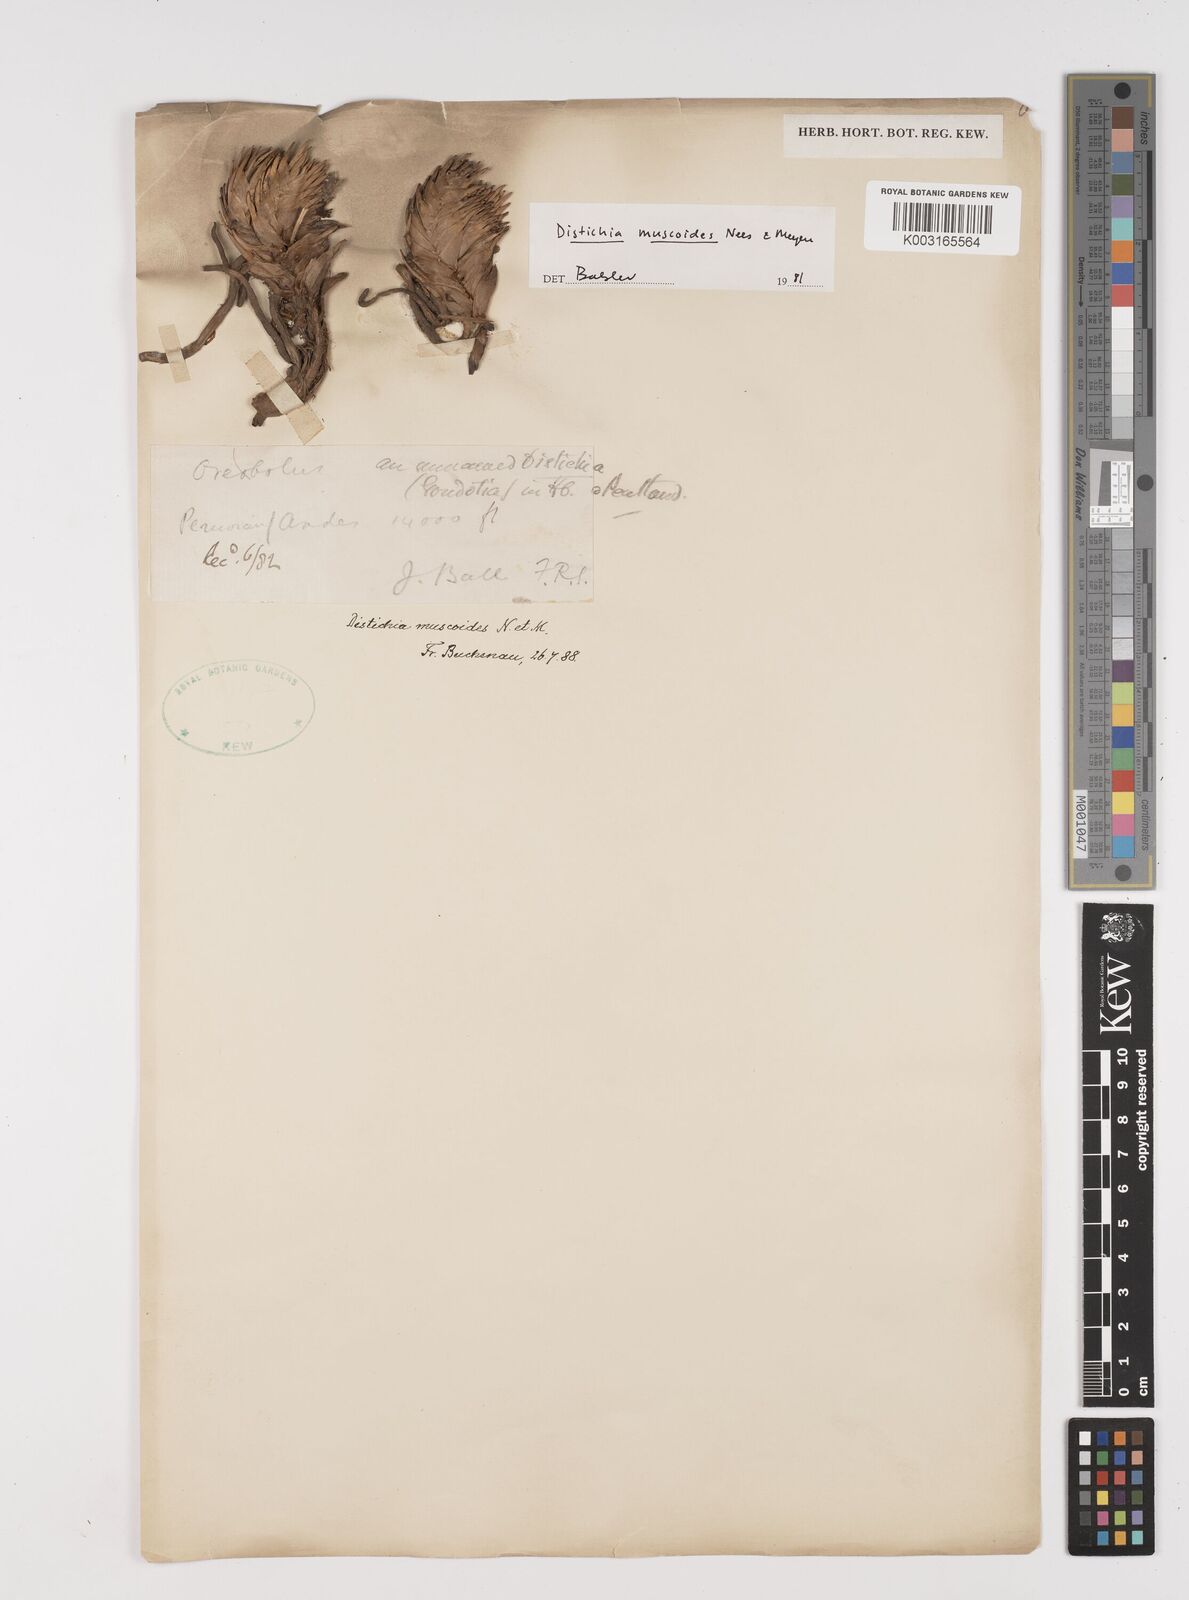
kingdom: Plantae
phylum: Tracheophyta
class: Liliopsida
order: Poales
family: Juncaceae
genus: Distichia
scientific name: Distichia muscoides
